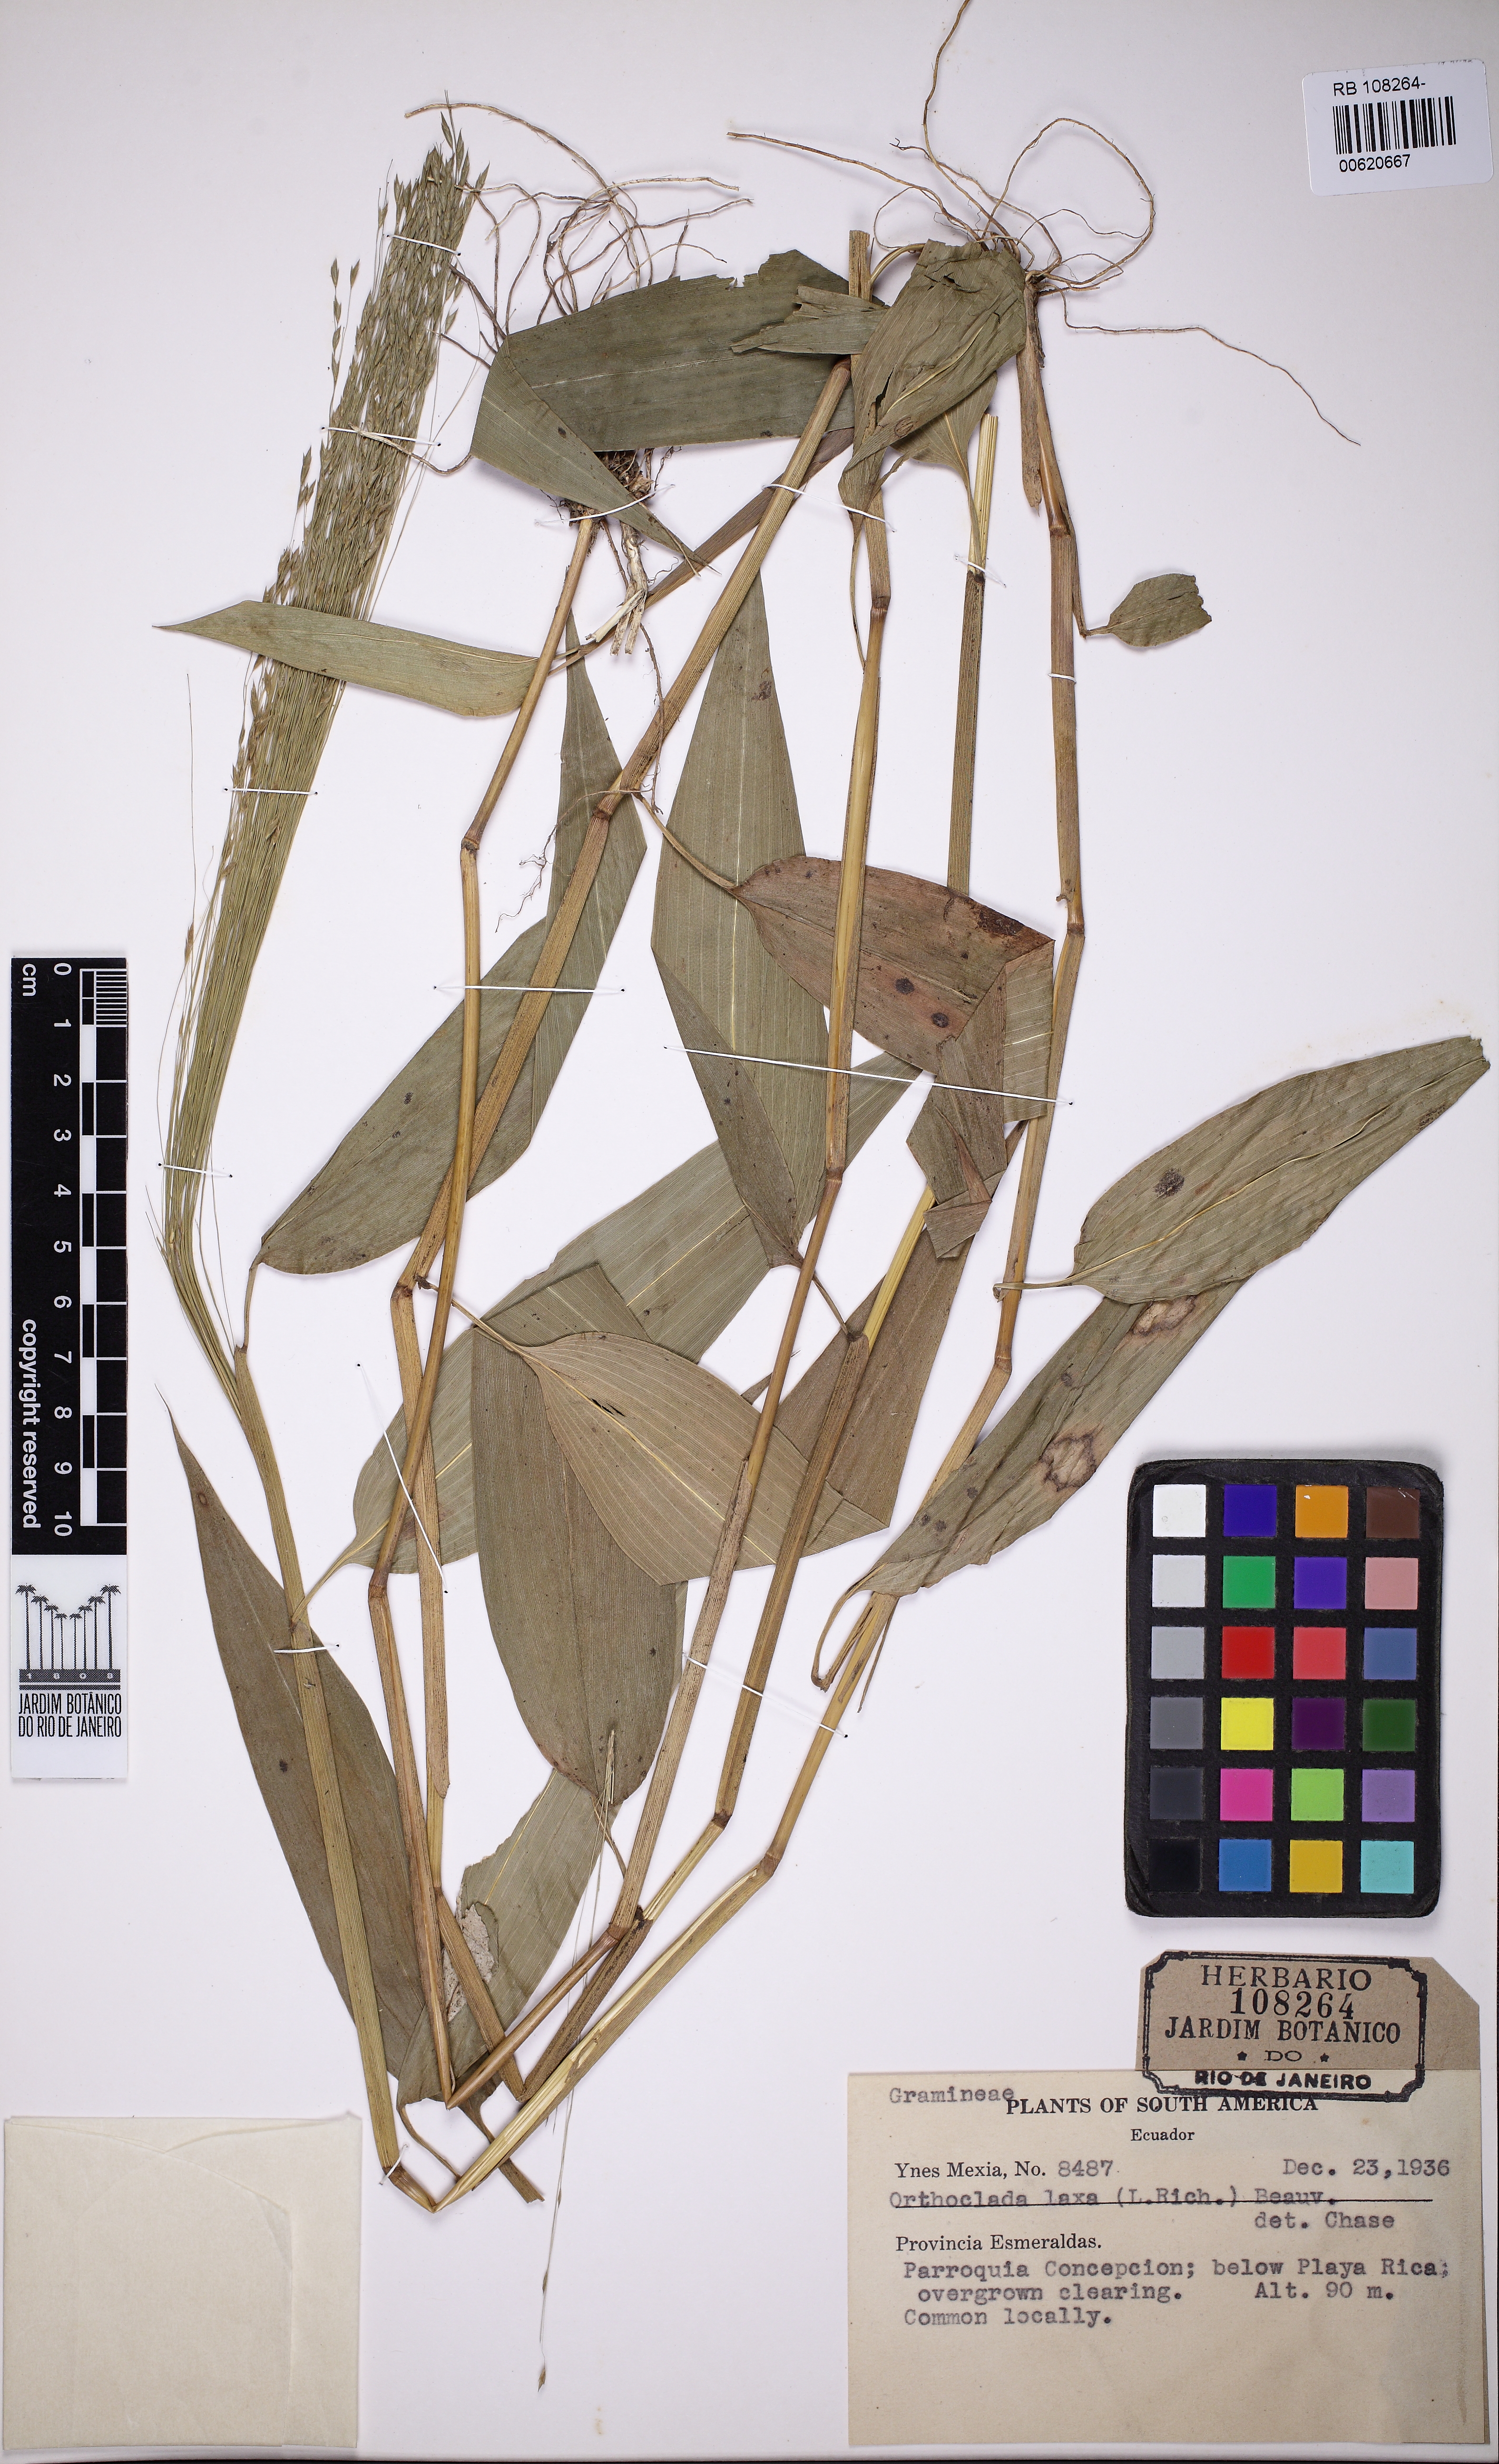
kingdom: Plantae
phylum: Tracheophyta
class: Liliopsida
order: Poales
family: Poaceae
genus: Orthoclada
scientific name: Orthoclada laxa
